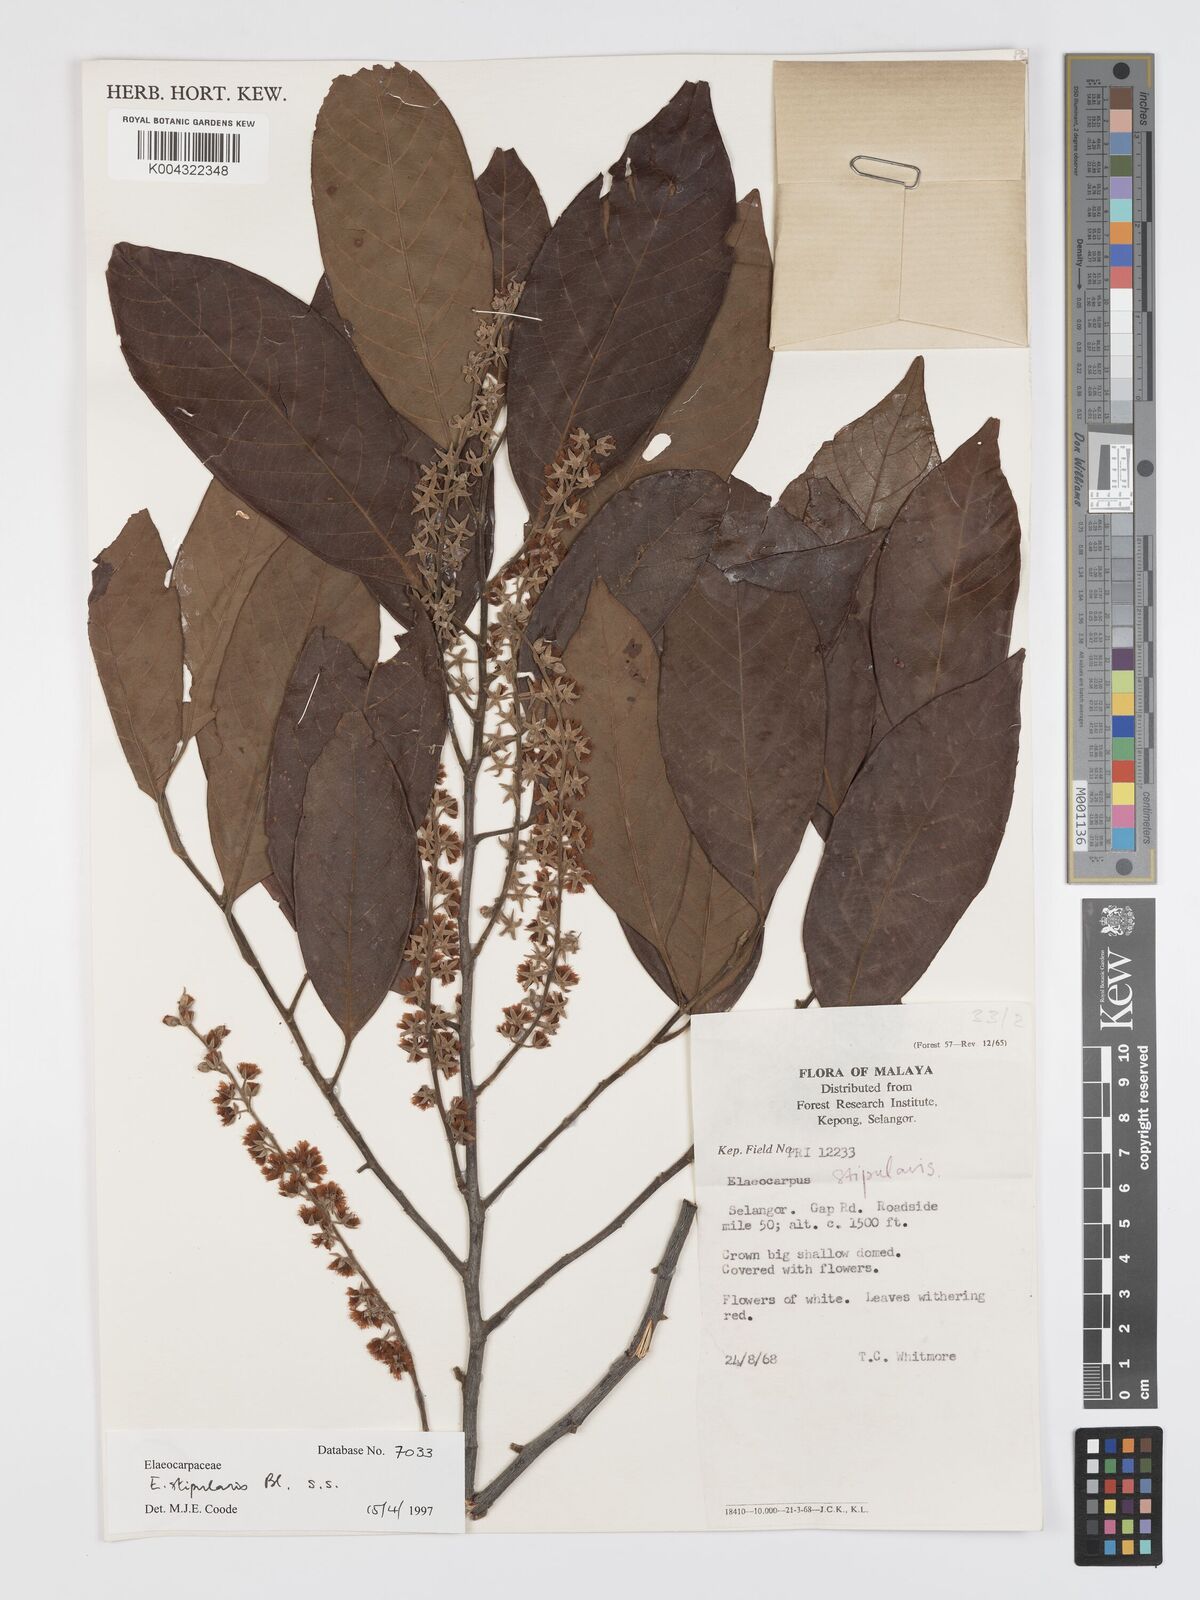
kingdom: Plantae
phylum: Tracheophyta
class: Magnoliopsida
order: Oxalidales
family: Elaeocarpaceae
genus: Elaeocarpus
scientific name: Elaeocarpus stipularis
